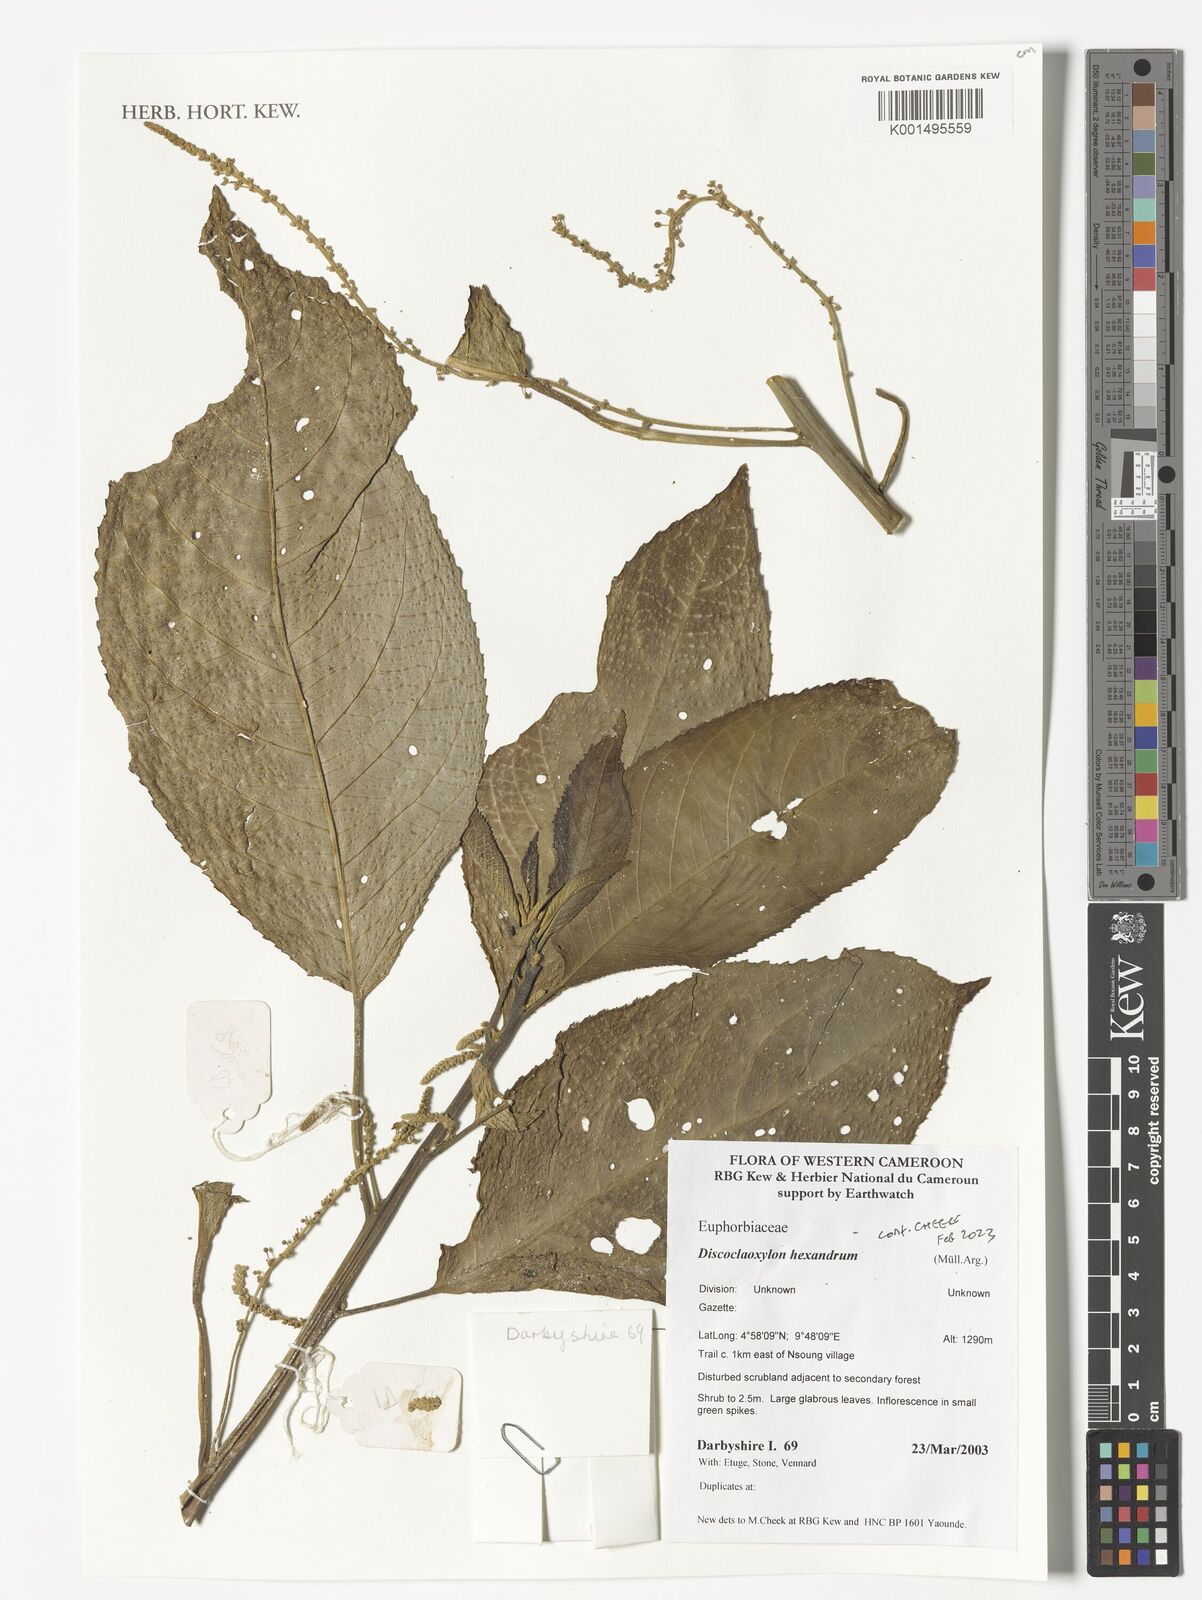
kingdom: Plantae
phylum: Tracheophyta
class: Magnoliopsida
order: Malpighiales
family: Euphorbiaceae
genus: Discoclaoxylon
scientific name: Discoclaoxylon hexandrum
